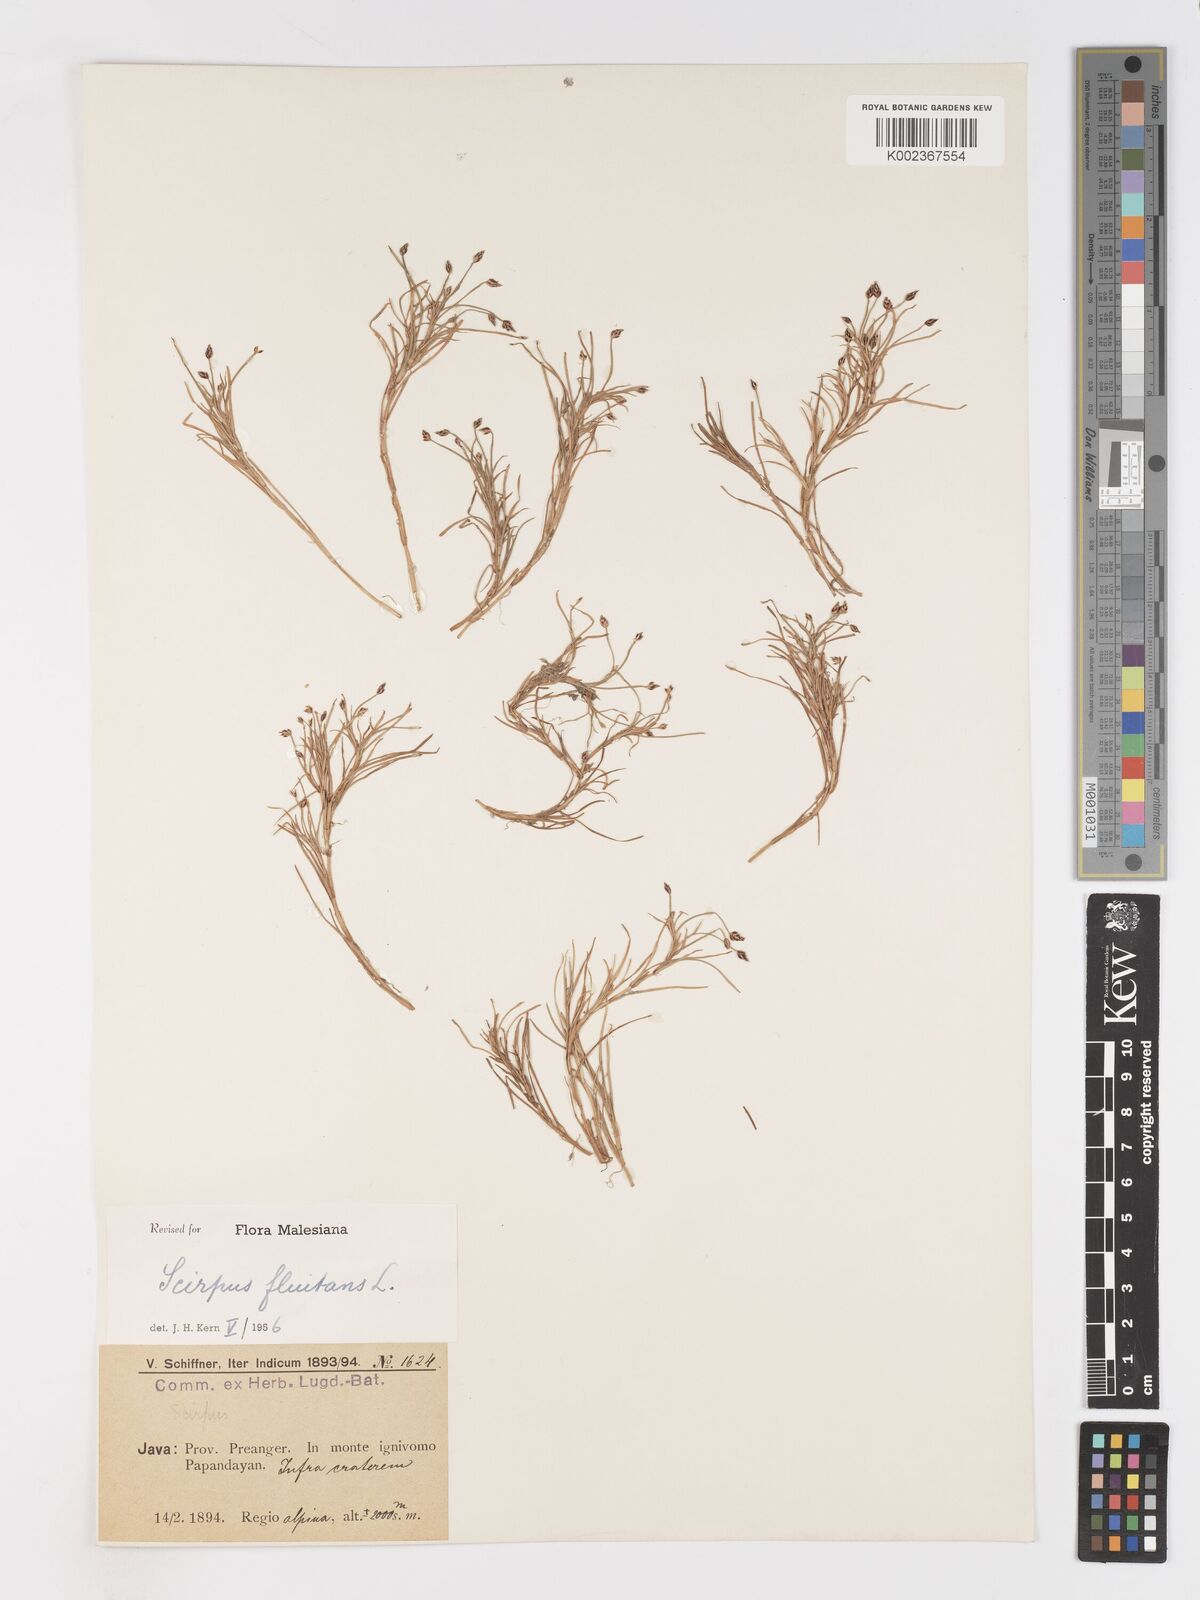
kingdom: Plantae
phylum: Tracheophyta
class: Liliopsida
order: Poales
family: Cyperaceae
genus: Isolepis
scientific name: Isolepis fluitans
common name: Floating club-rush
